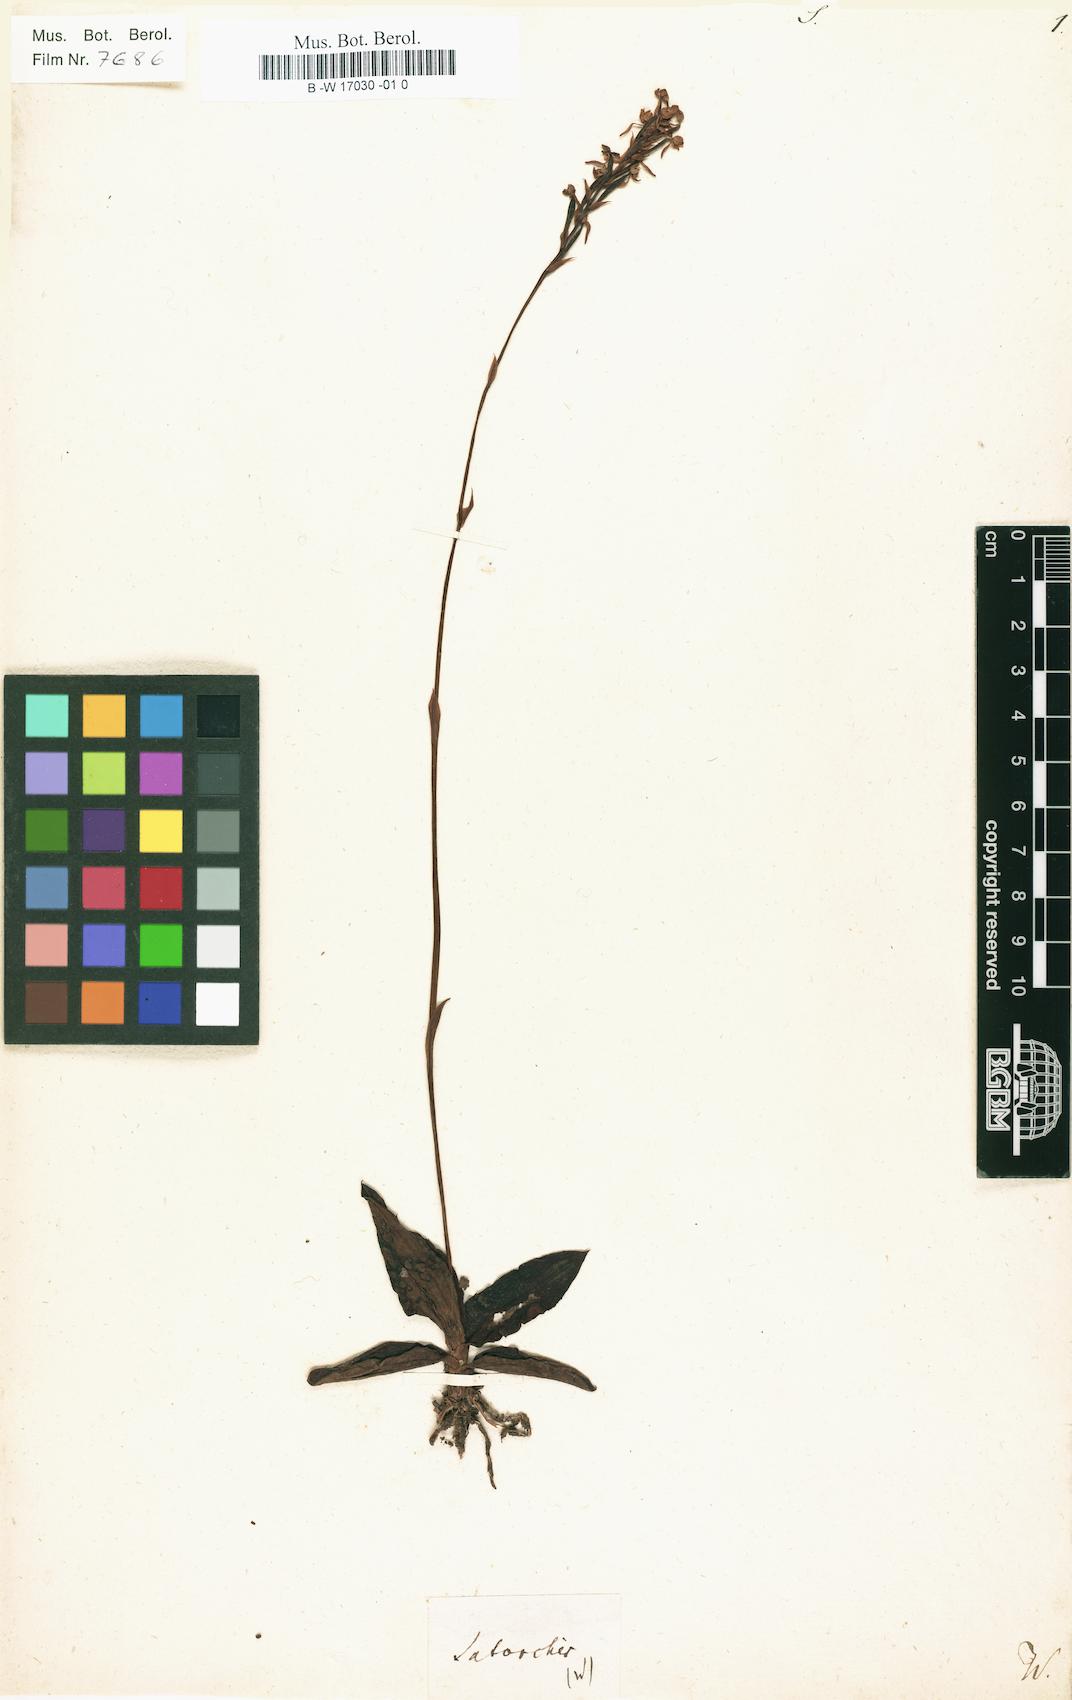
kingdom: Plantae
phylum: Tracheophyta
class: Liliopsida
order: Asparagales
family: Orchidaceae
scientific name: Orchidaceae
